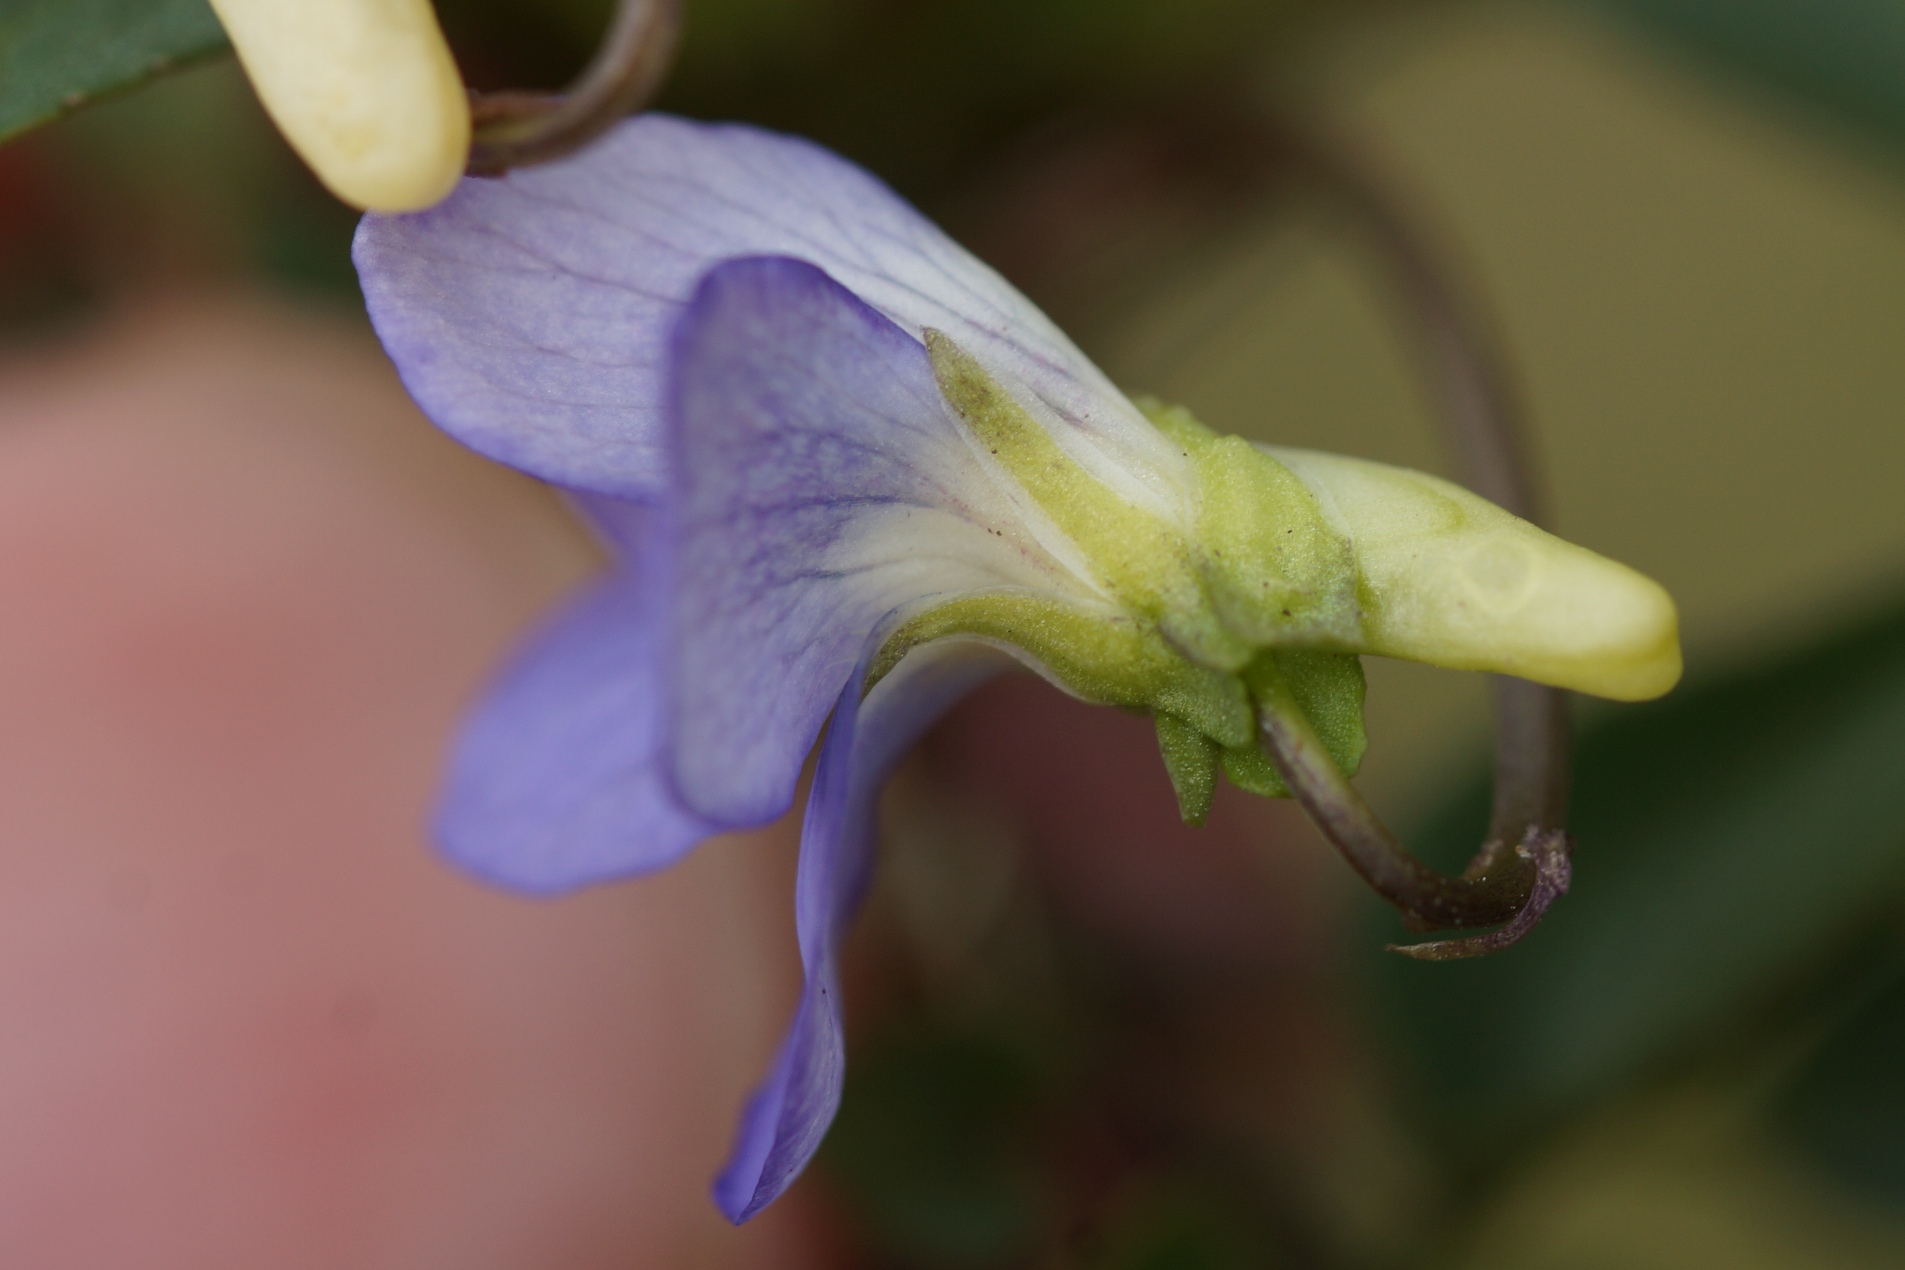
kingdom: Plantae
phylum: Tracheophyta
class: Magnoliopsida
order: Malpighiales
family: Violaceae
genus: Viola
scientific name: Viola canina
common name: Hunde-viol
